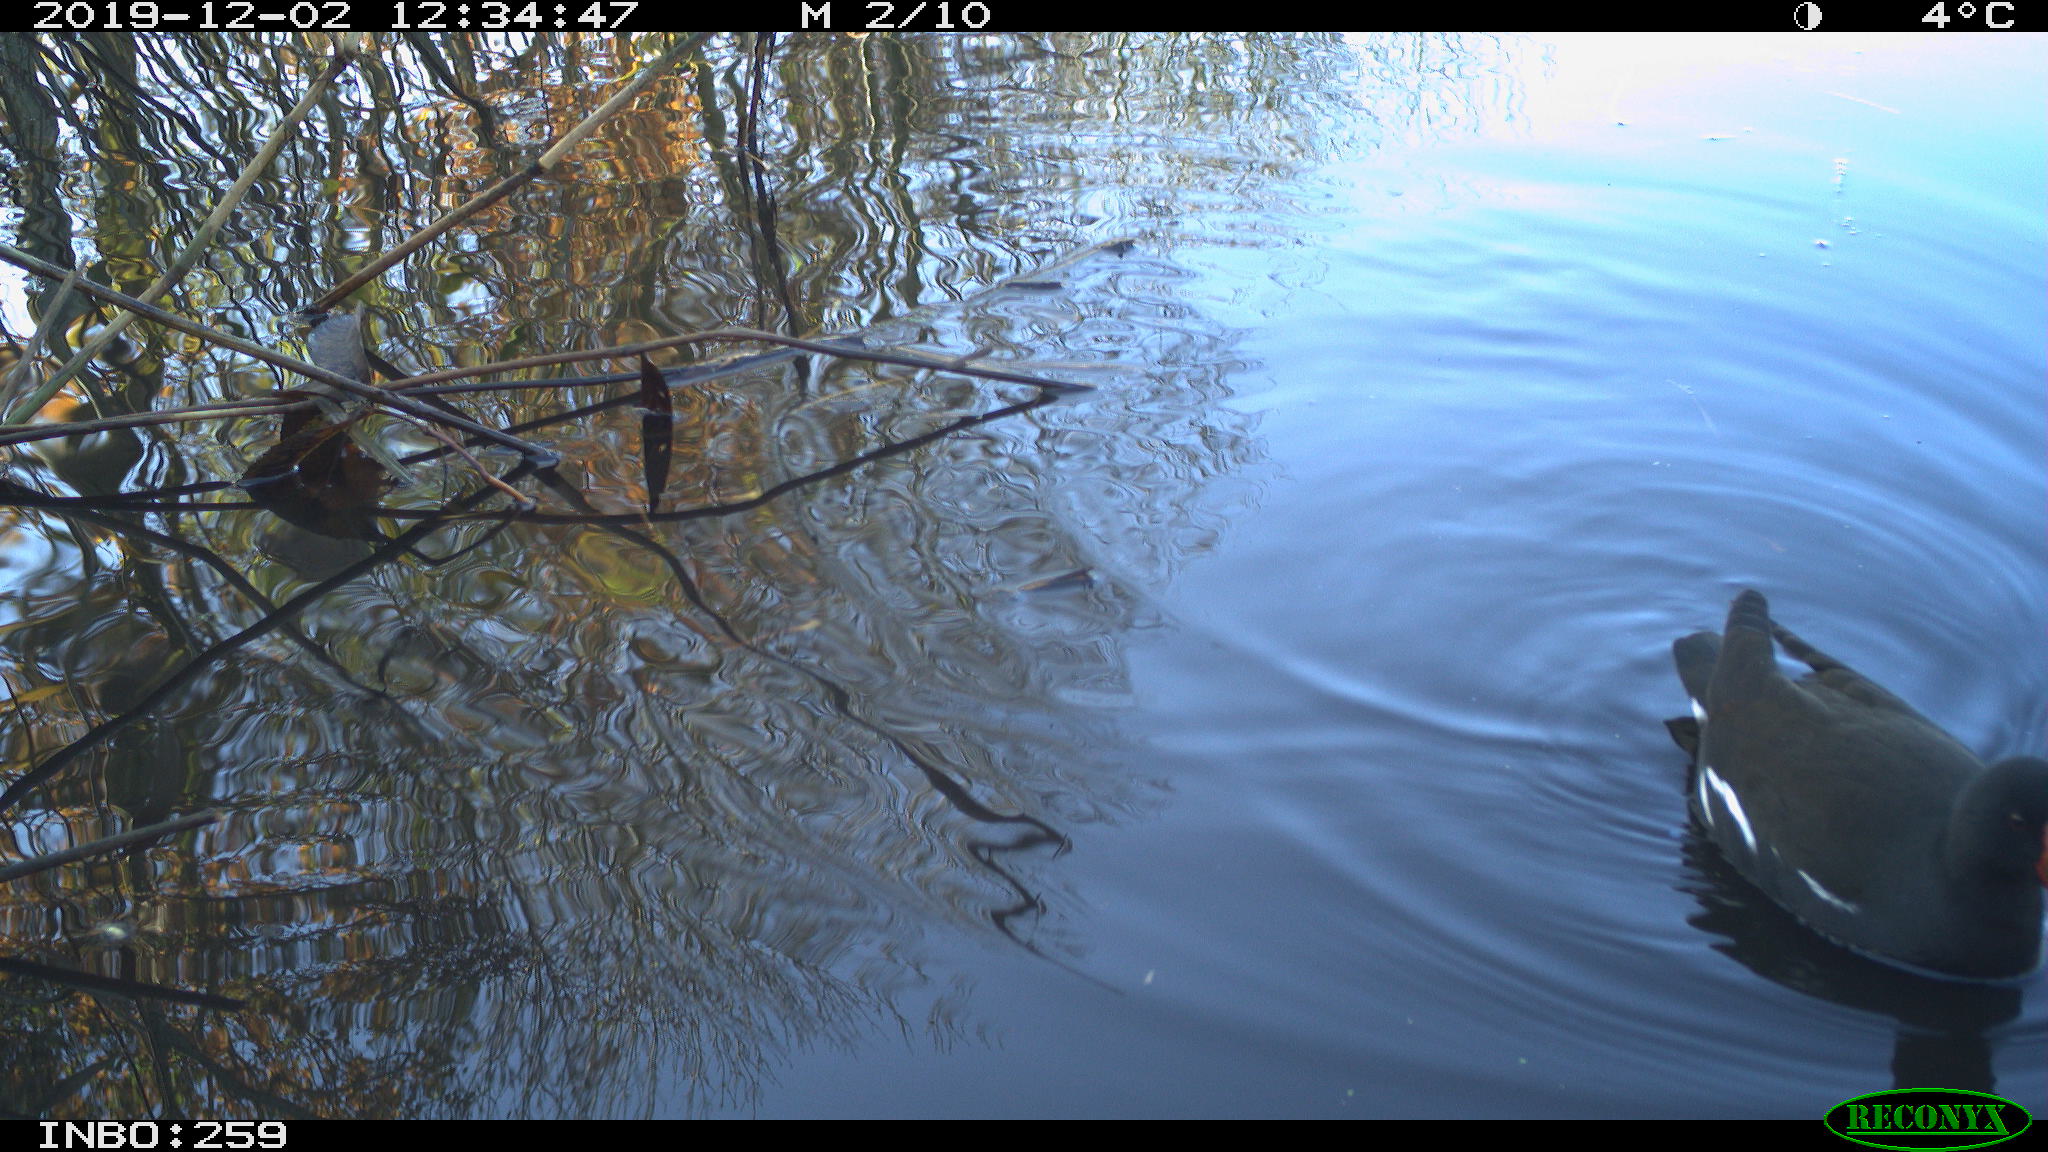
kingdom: Animalia
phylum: Chordata
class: Aves
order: Gruiformes
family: Rallidae
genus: Gallinula
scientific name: Gallinula chloropus
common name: Common moorhen
